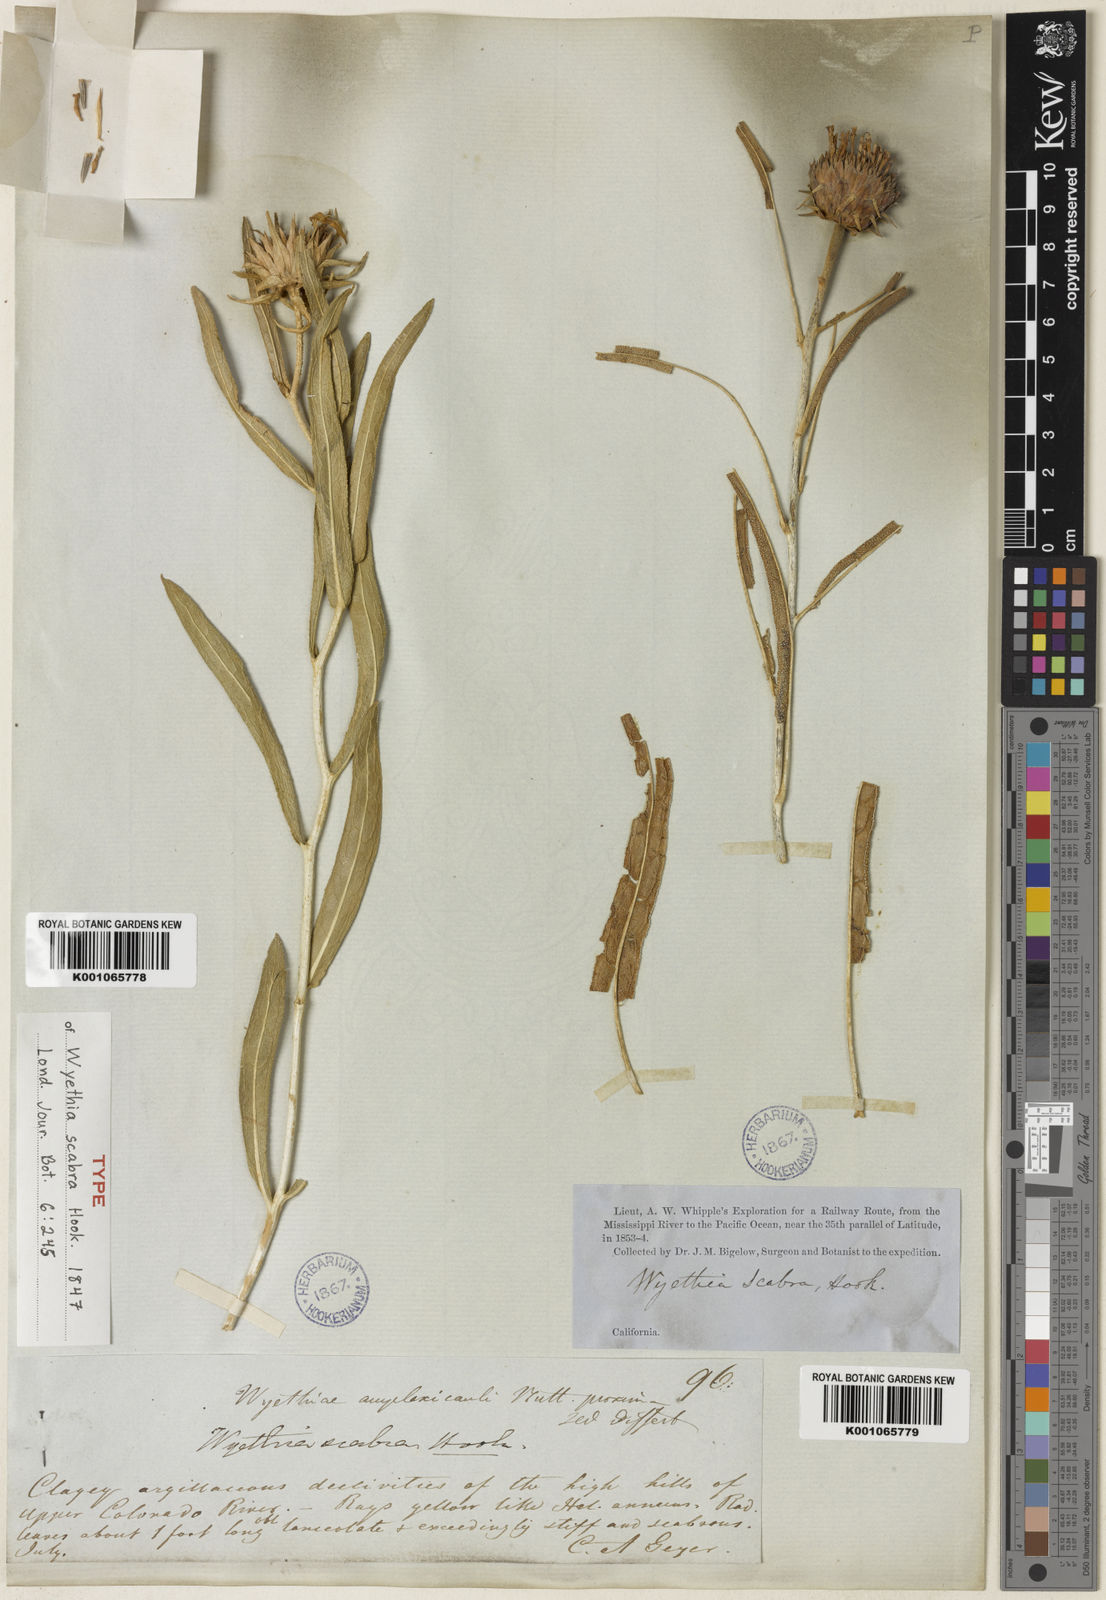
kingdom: Plantae
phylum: Tracheophyta
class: Magnoliopsida
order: Asterales
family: Asteraceae
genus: Scabrethia
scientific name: Scabrethia scabra
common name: Rough mules's-ears
